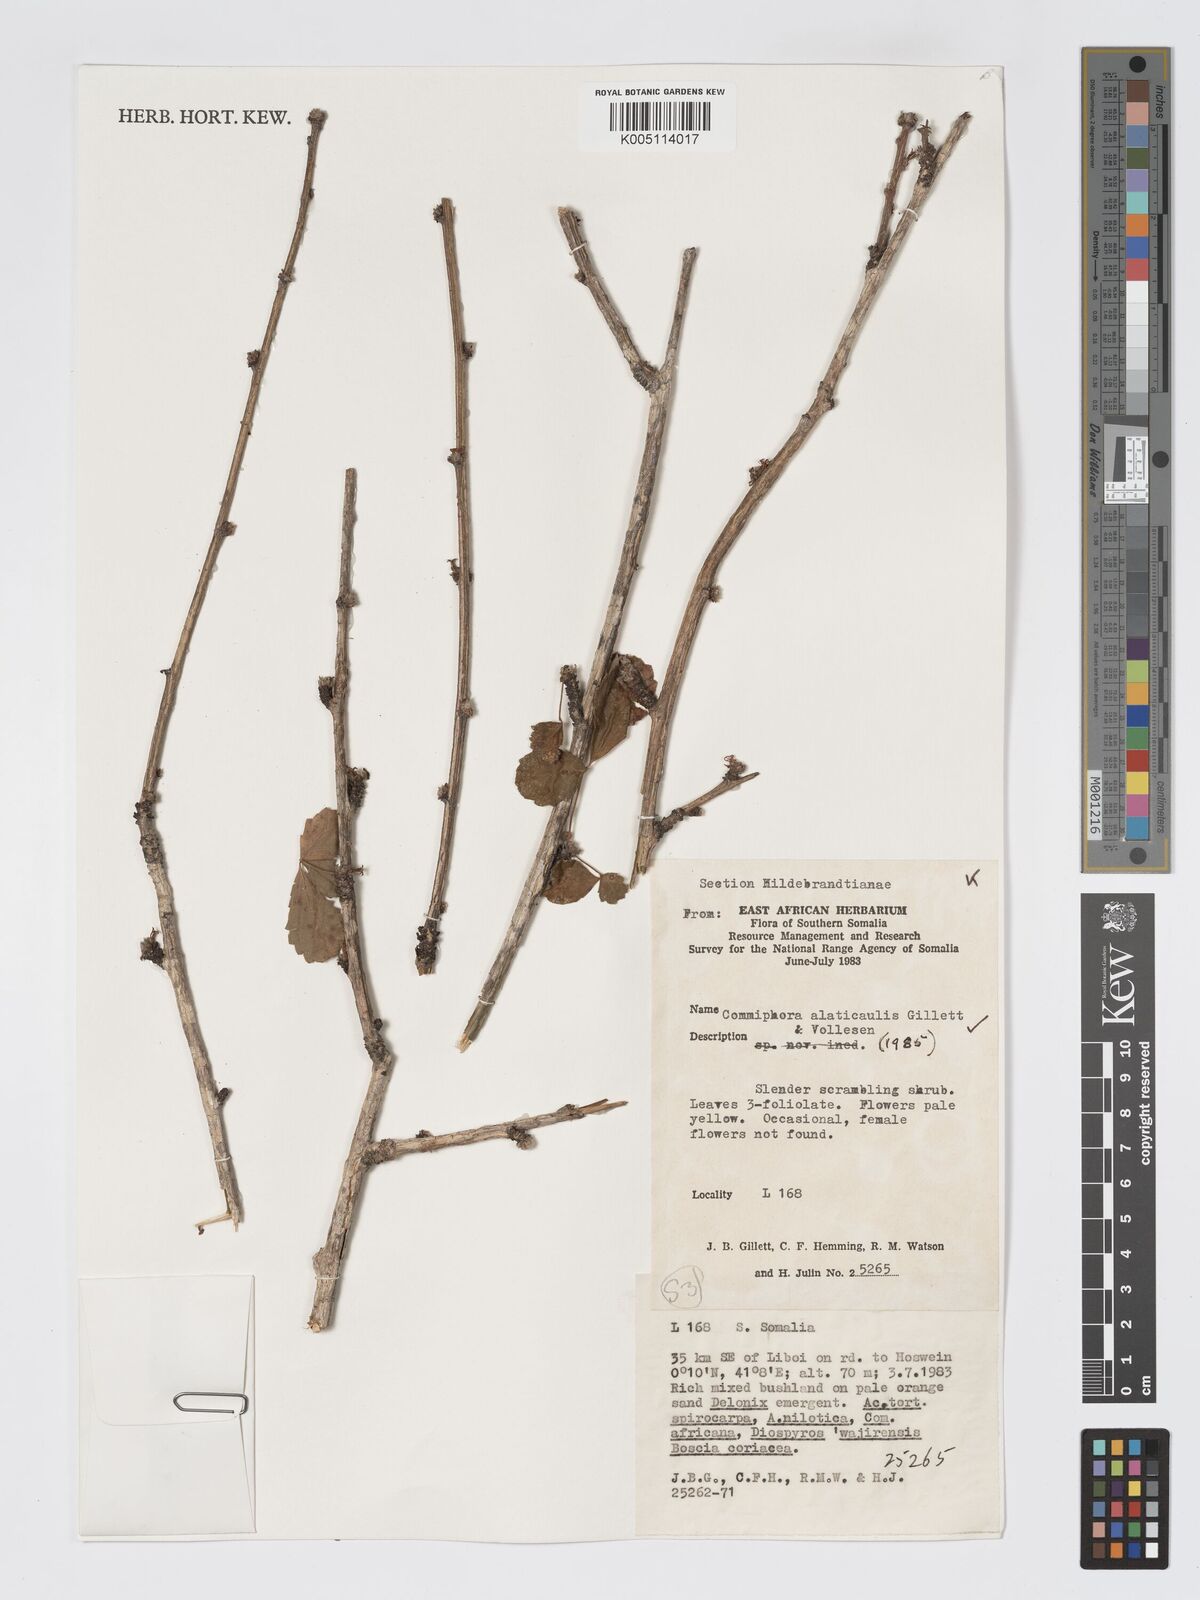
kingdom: Plantae
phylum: Tracheophyta
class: Magnoliopsida
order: Sapindales
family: Burseraceae
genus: Commiphora
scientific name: Commiphora alaticaulis
